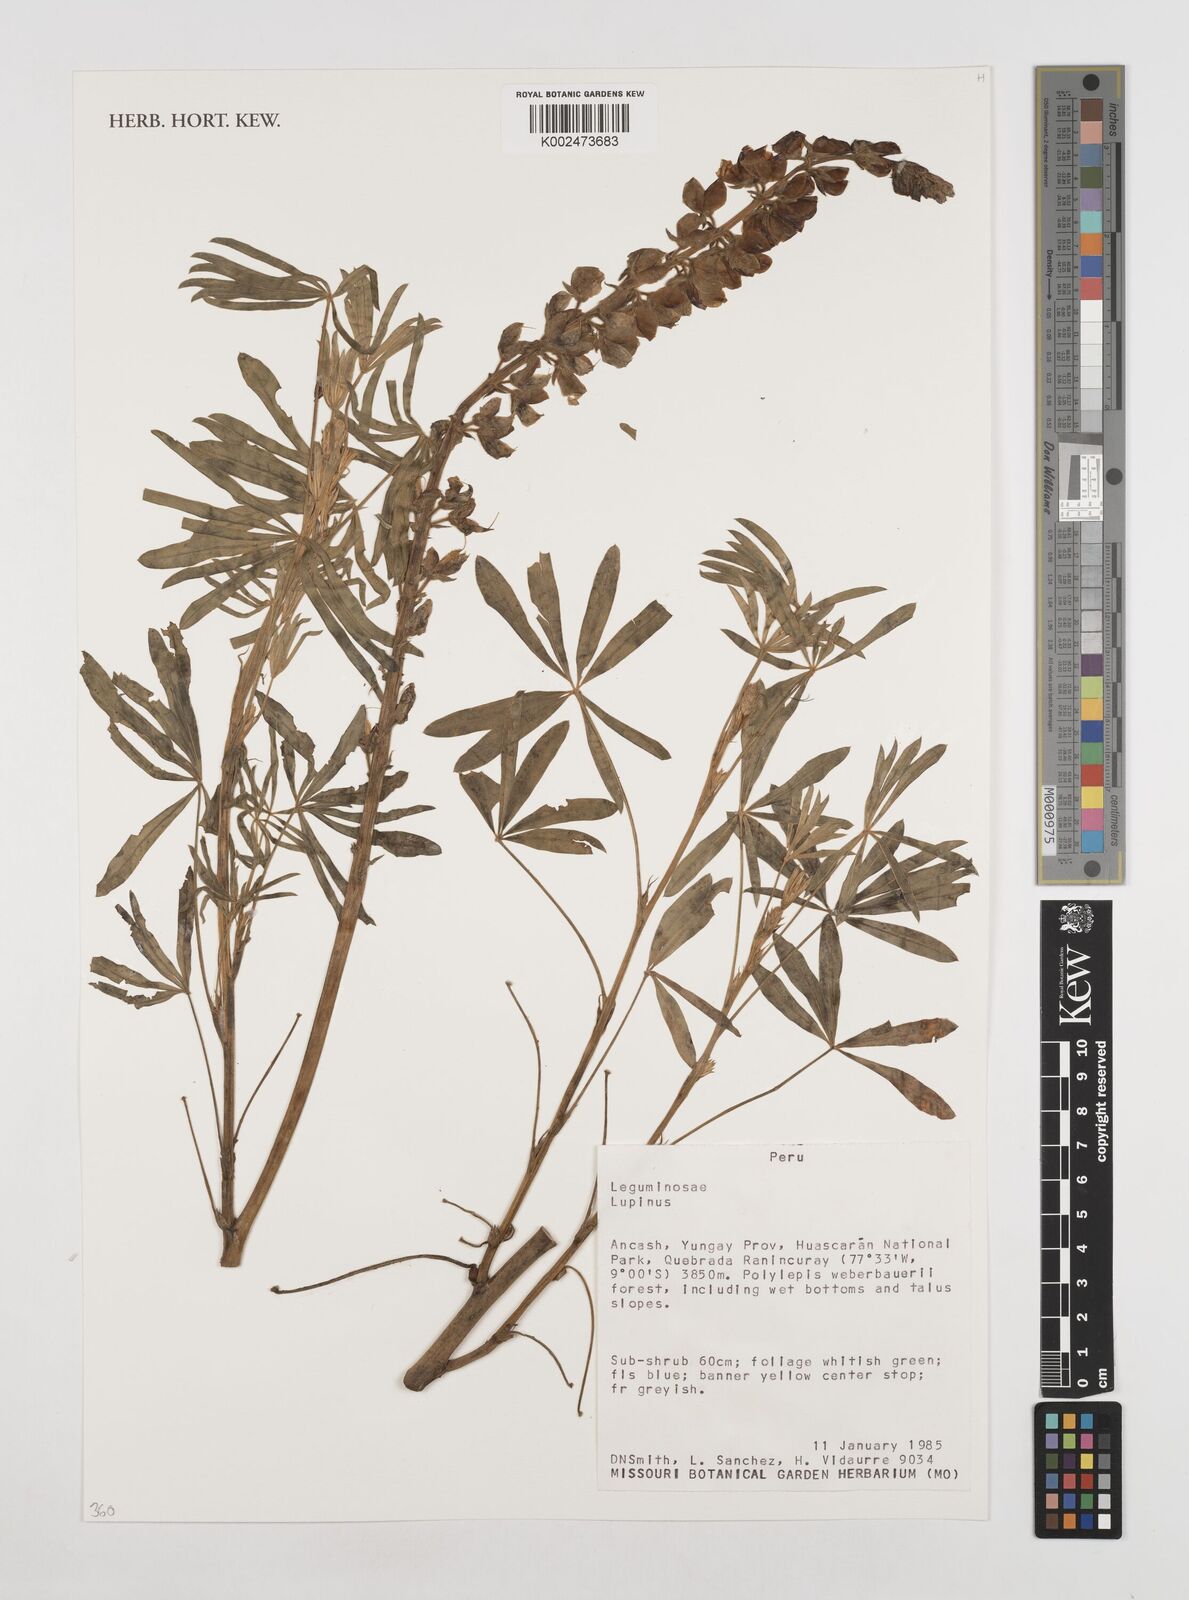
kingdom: Plantae
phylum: Tracheophyta
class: Magnoliopsida
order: Fabales
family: Fabaceae
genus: Lupinus
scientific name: Lupinus
